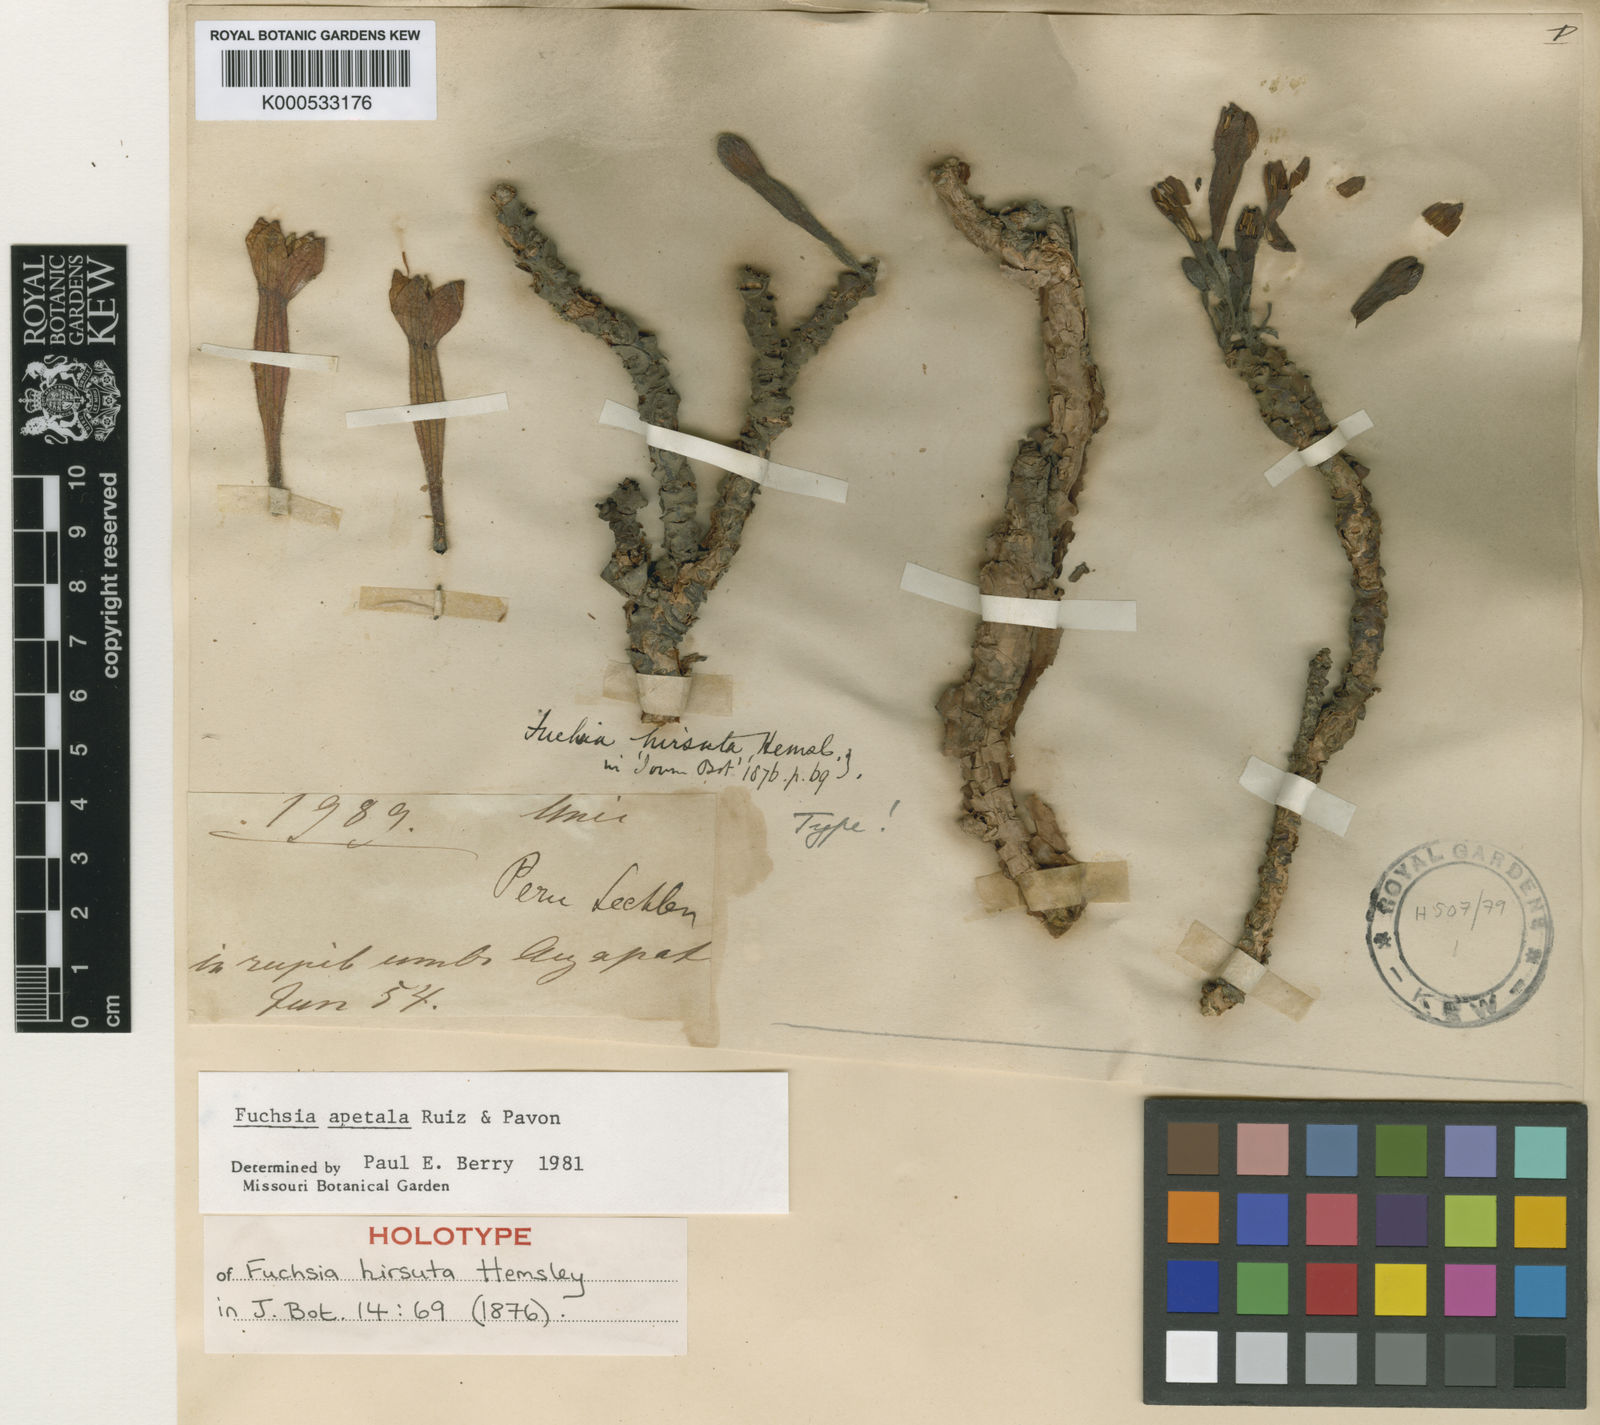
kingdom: Plantae
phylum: Tracheophyta
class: Magnoliopsida
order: Myrtales
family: Onagraceae
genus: Fuchsia
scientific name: Fuchsia apetala
